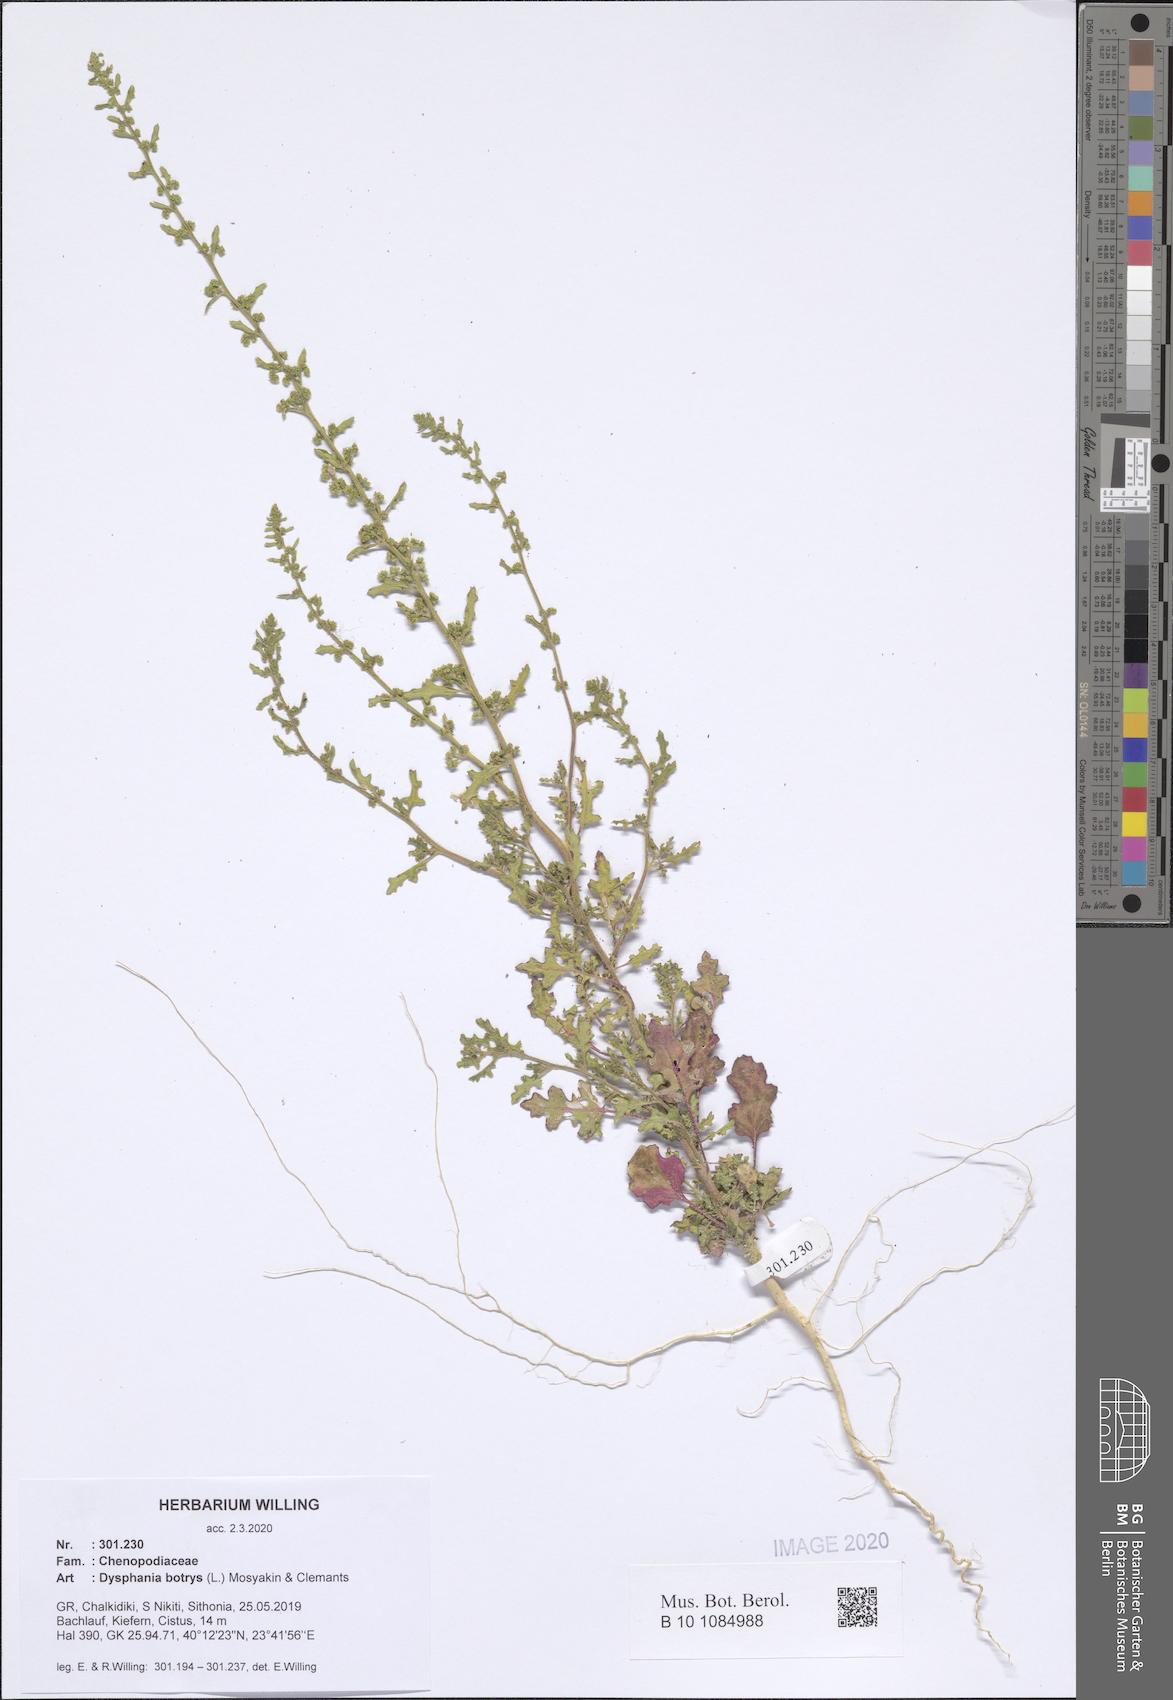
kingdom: Plantae
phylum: Tracheophyta
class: Magnoliopsida
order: Caryophyllales
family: Amaranthaceae
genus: Dysphania
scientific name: Dysphania botrys
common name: Feather-geranium
